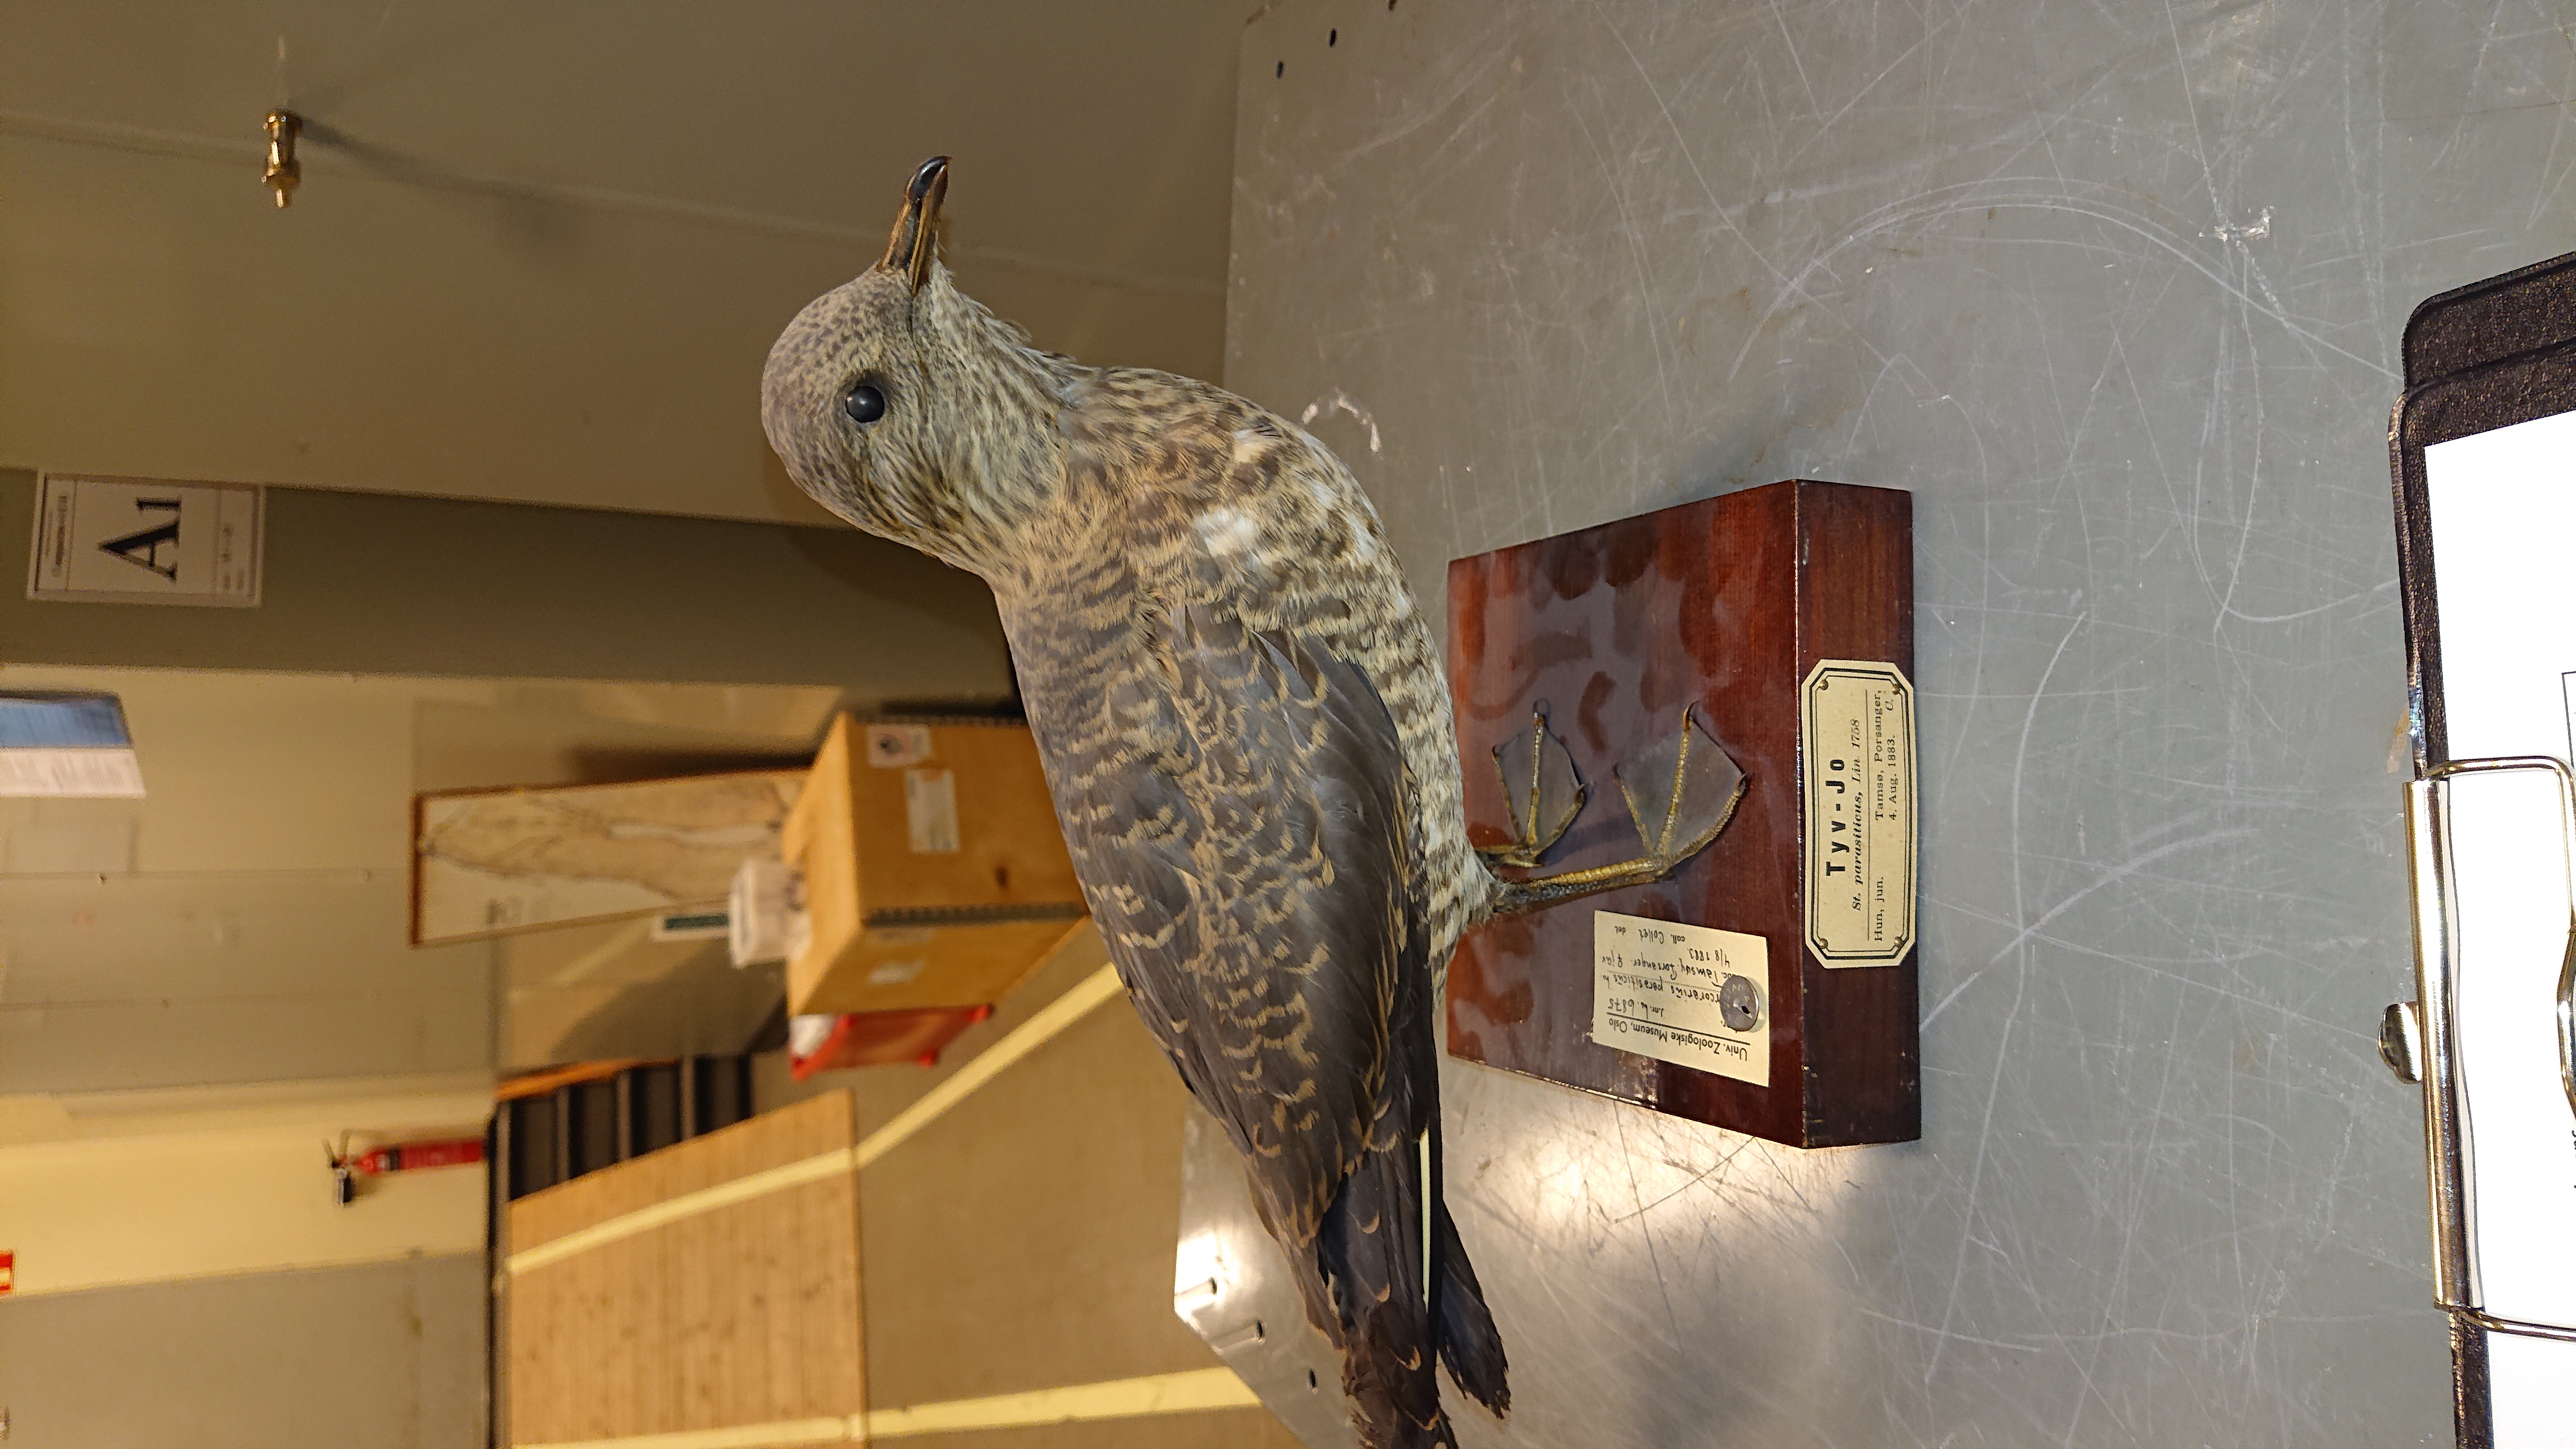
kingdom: Animalia
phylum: Chordata
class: Aves
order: Charadriiformes
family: Stercorariidae
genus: Stercorarius
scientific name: Stercorarius parasiticus
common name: Parasitic jaeger
